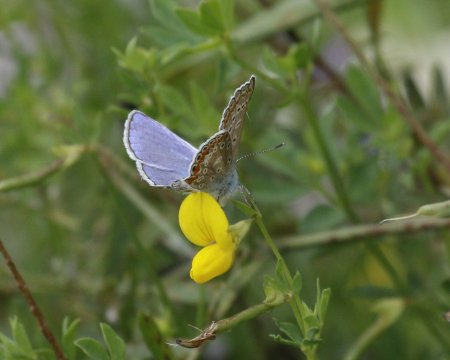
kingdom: Animalia
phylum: Arthropoda
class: Insecta
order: Lepidoptera
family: Lycaenidae
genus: Polyommatus
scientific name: Polyommatus icarus
